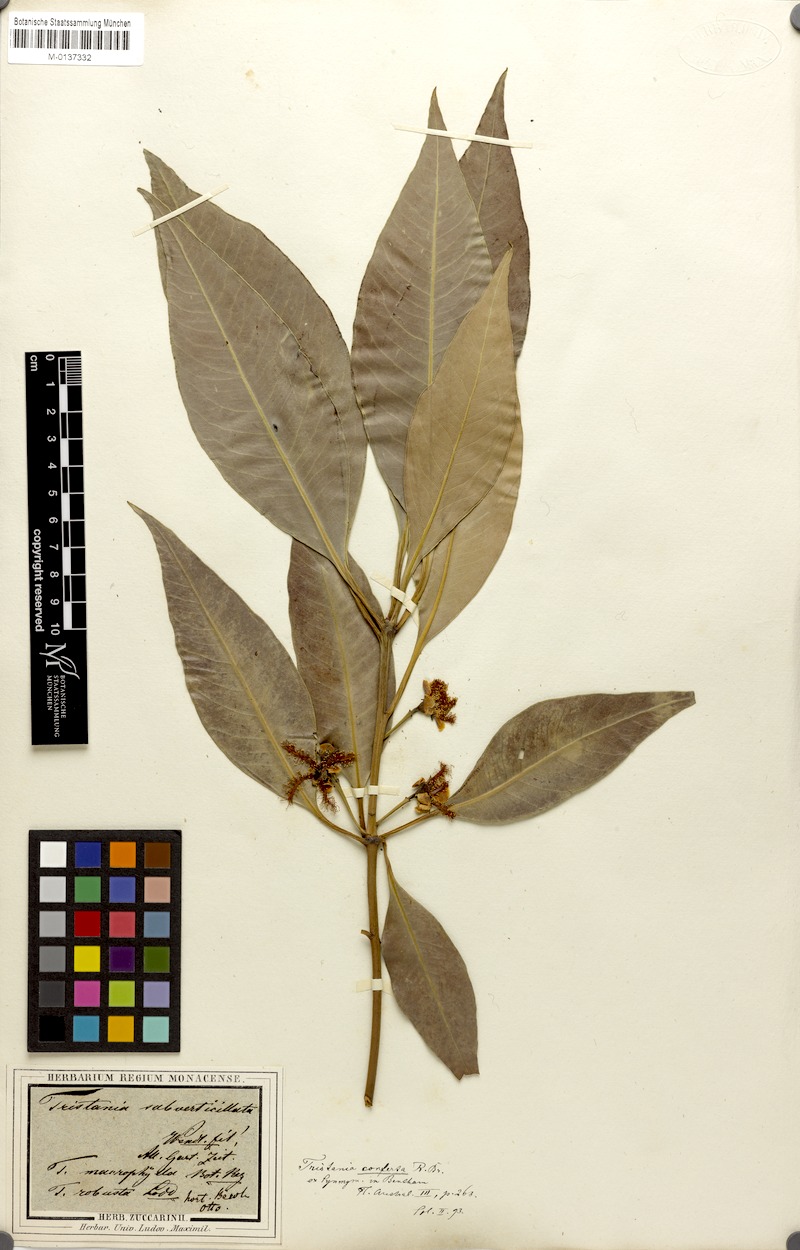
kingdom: Plantae
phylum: Tracheophyta
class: Magnoliopsida
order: Myrtales
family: Myrtaceae
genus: Lophostemon
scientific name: Lophostemon confertus
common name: Brisbane box
